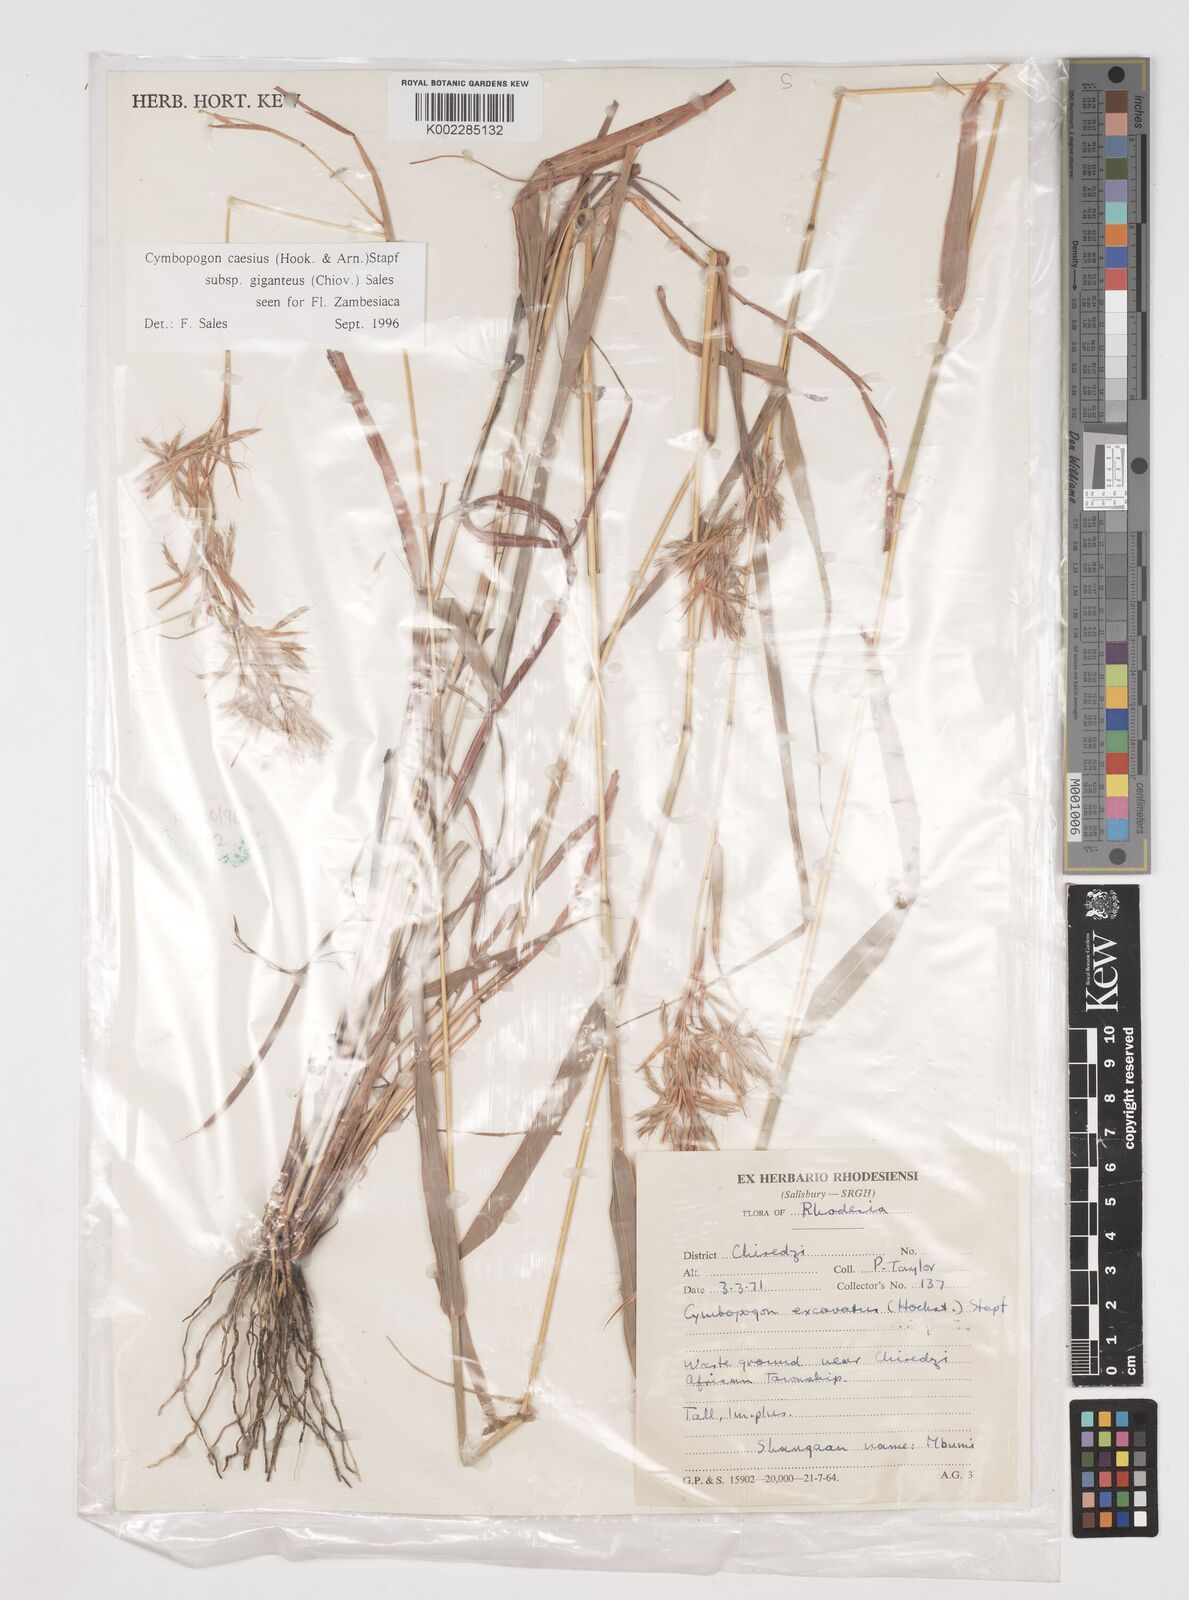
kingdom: Plantae
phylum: Tracheophyta
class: Liliopsida
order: Poales
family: Poaceae
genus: Cymbopogon
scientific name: Cymbopogon giganteus
